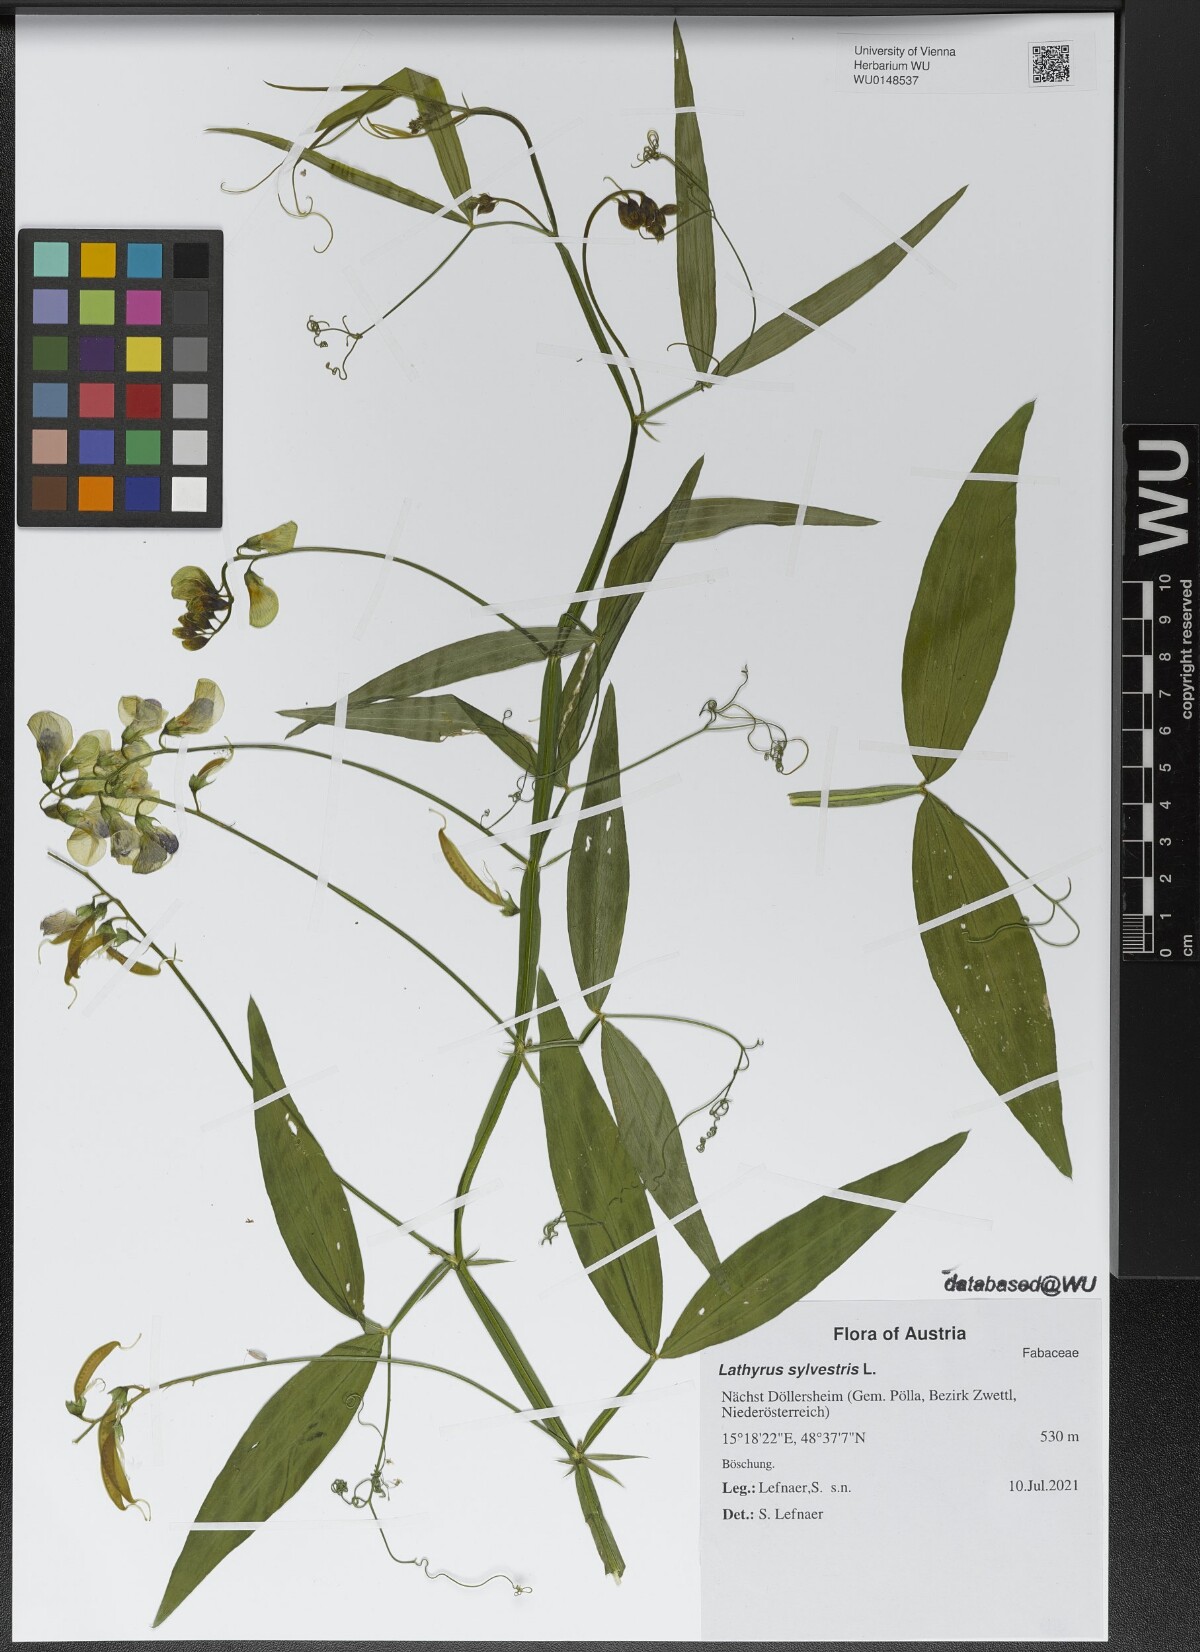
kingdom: Plantae
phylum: Tracheophyta
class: Magnoliopsida
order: Fabales
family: Fabaceae
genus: Lathyrus
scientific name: Lathyrus sylvestris
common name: Flat pea
